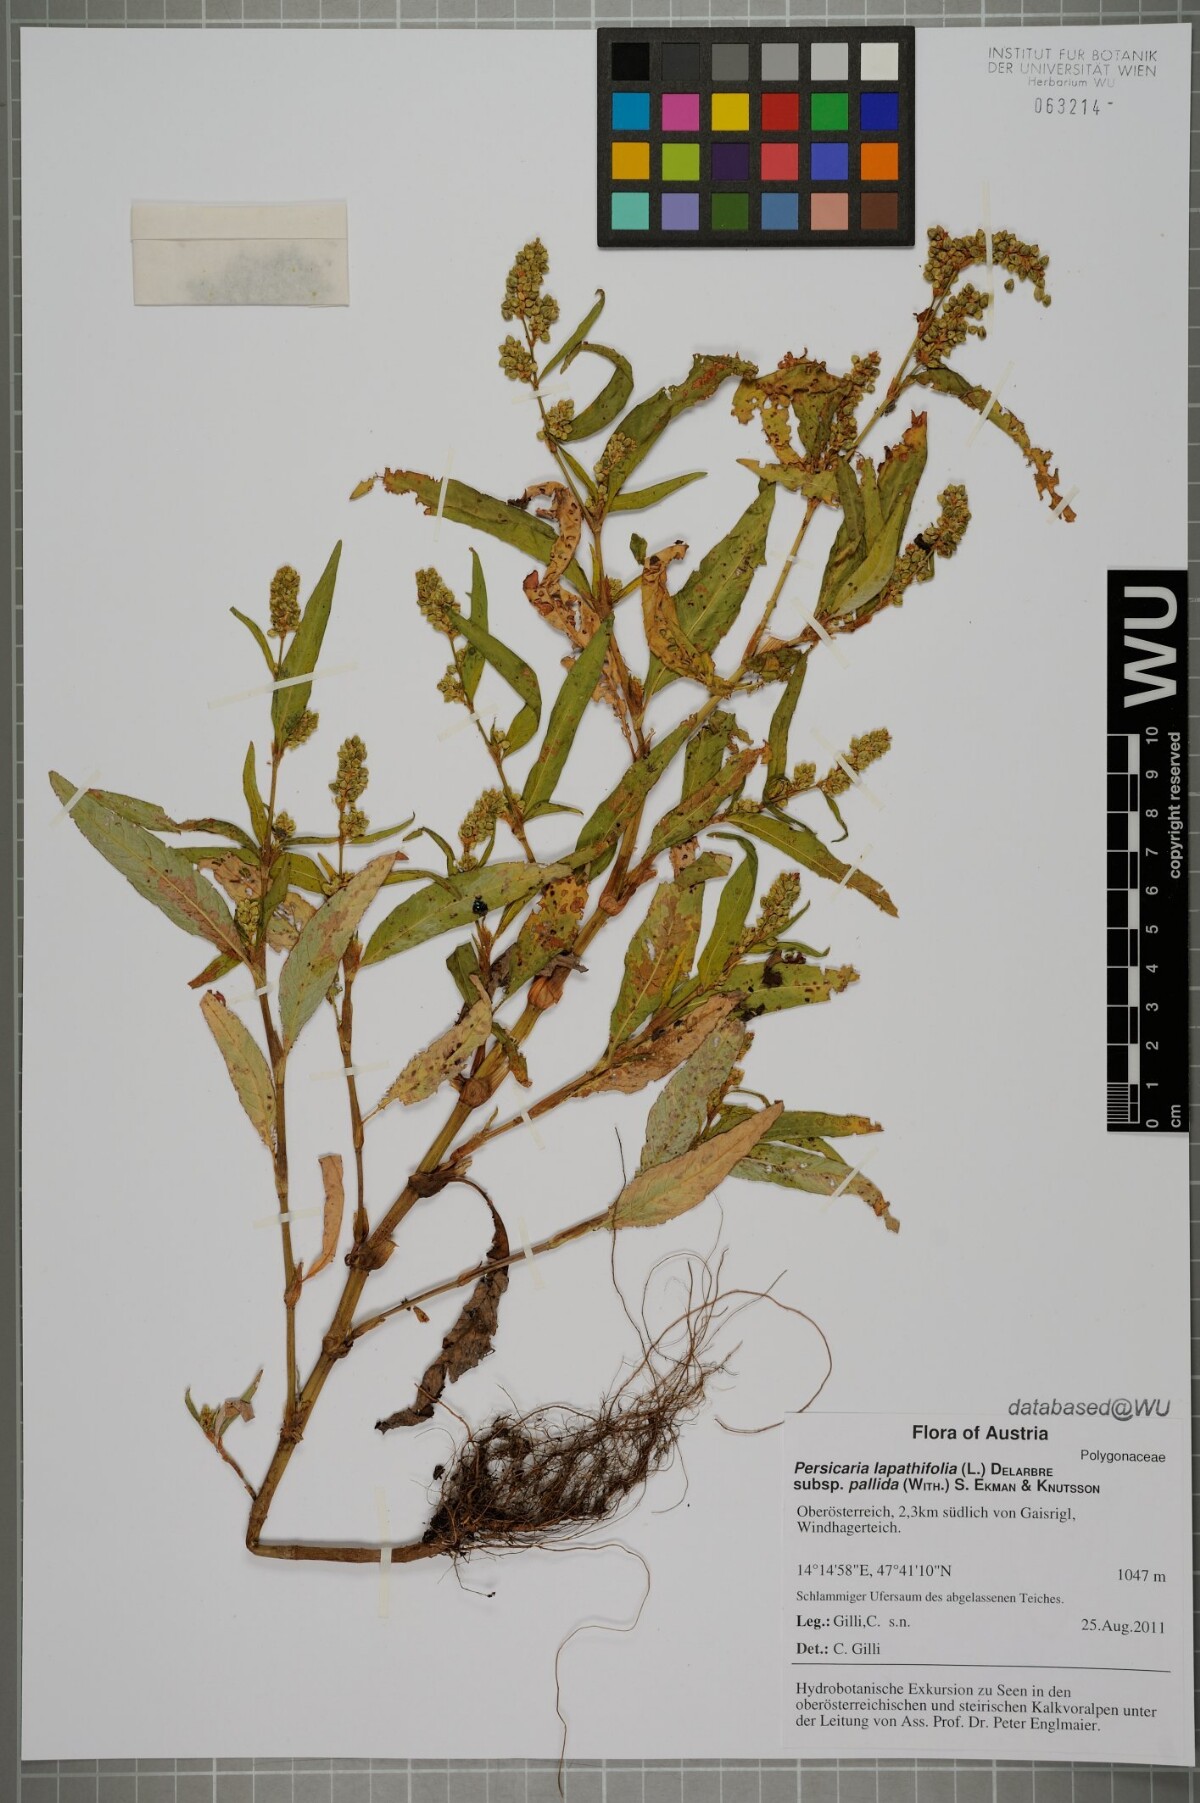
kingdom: Plantae
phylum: Tracheophyta
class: Magnoliopsida
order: Caryophyllales
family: Polygonaceae
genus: Persicaria
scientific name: Persicaria lapathifolia
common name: Curlytop knotweed
